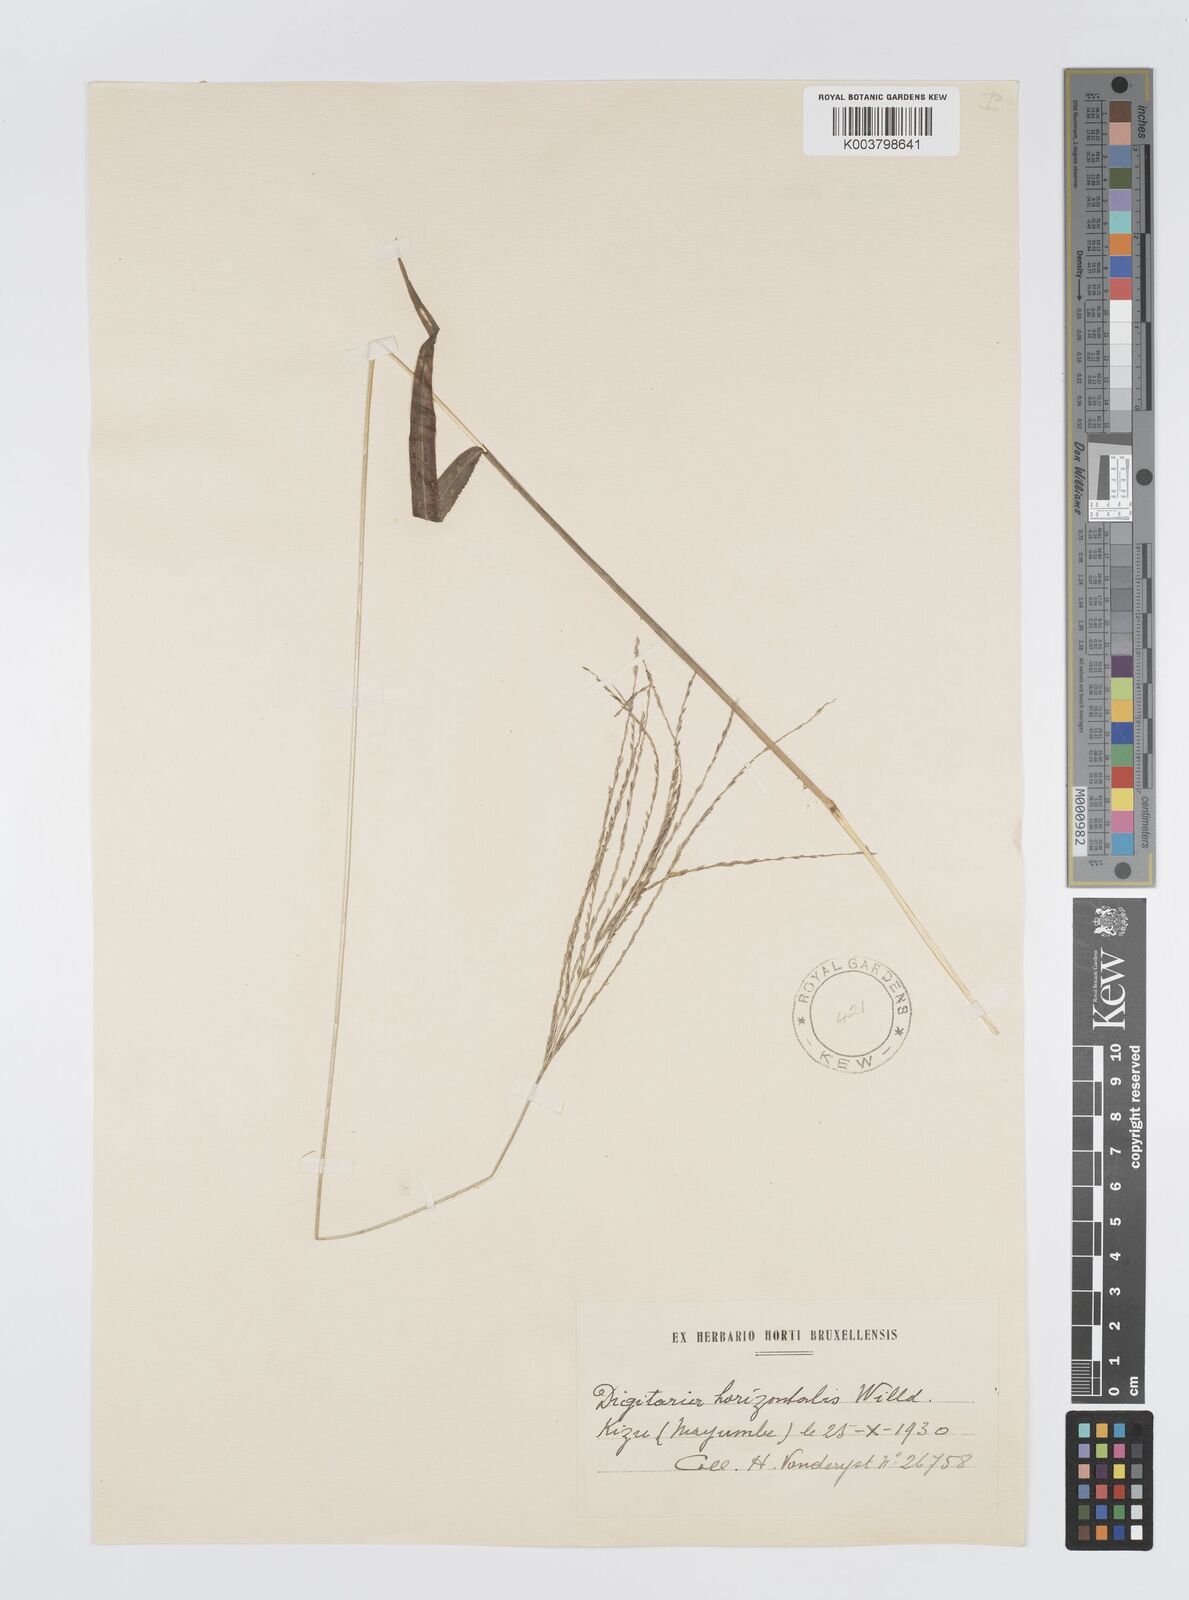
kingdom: Plantae
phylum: Tracheophyta
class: Liliopsida
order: Poales
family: Poaceae
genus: Digitaria
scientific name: Digitaria horizontalis
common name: Jamaican crabgrass
